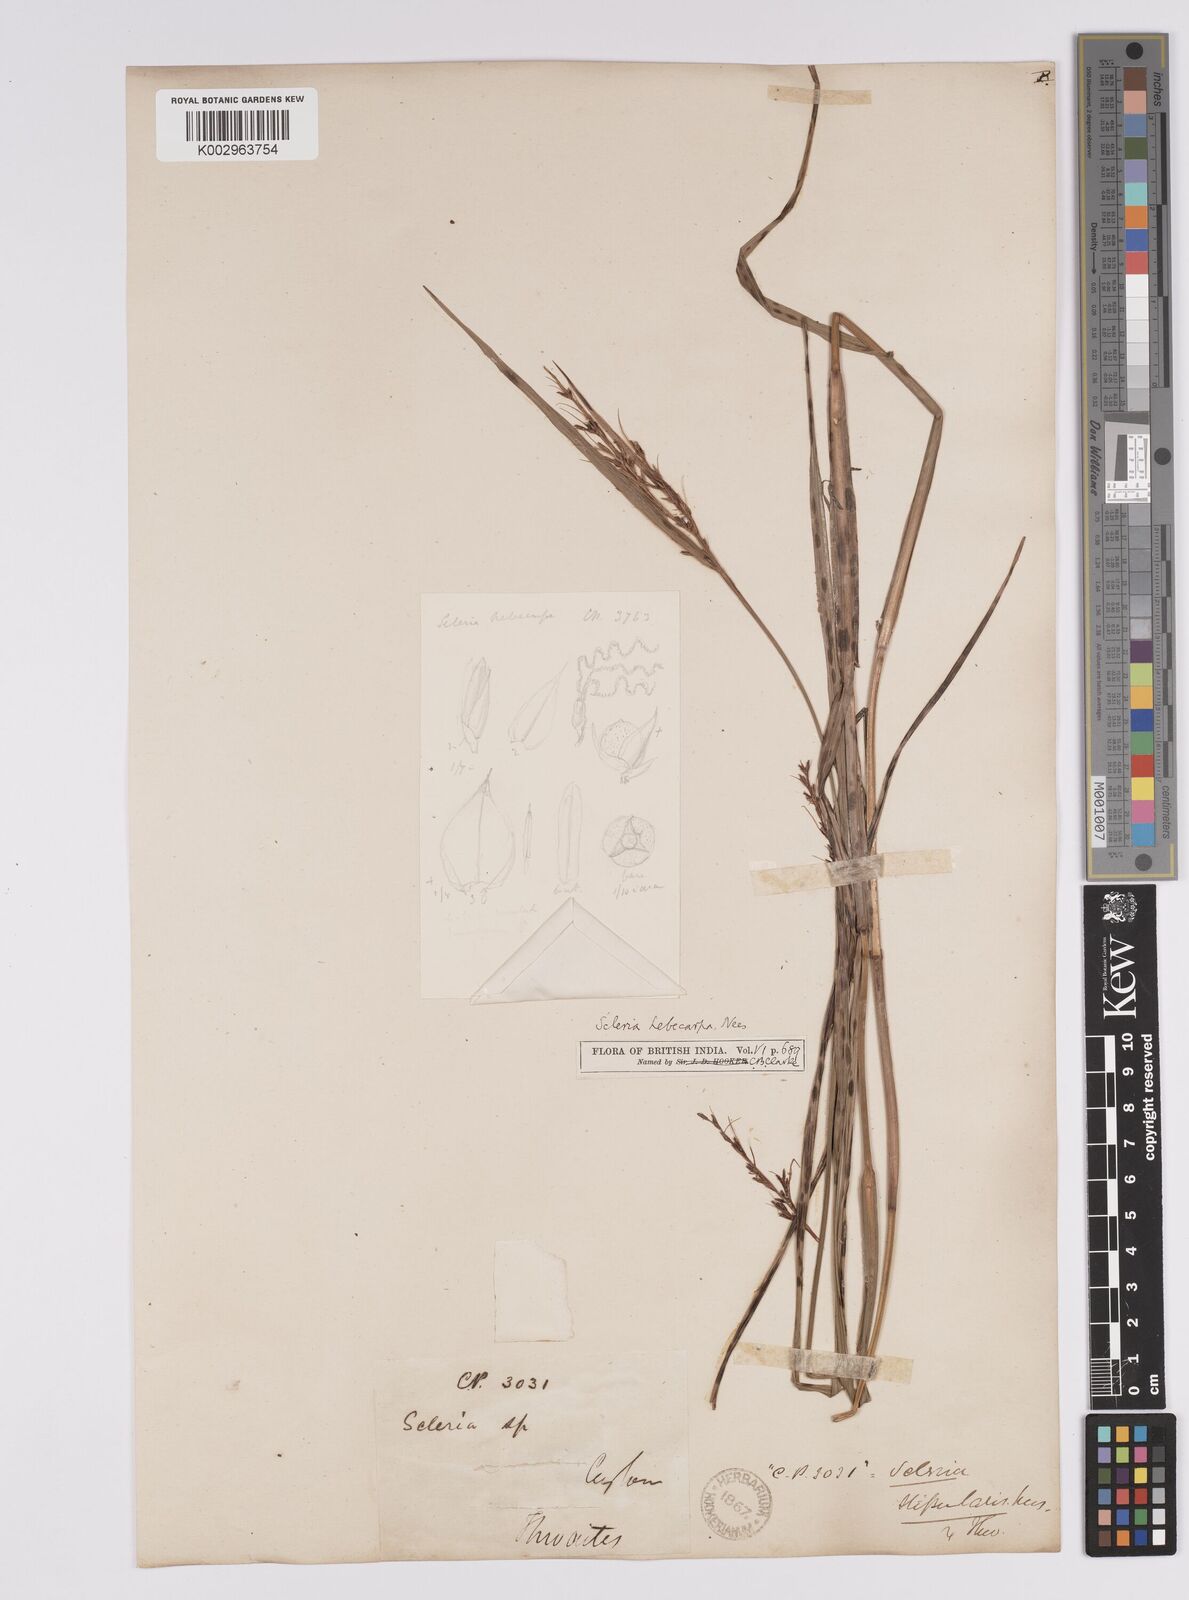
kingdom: Plantae
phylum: Tracheophyta
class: Liliopsida
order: Poales
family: Cyperaceae
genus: Scleria
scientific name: Scleria levis
